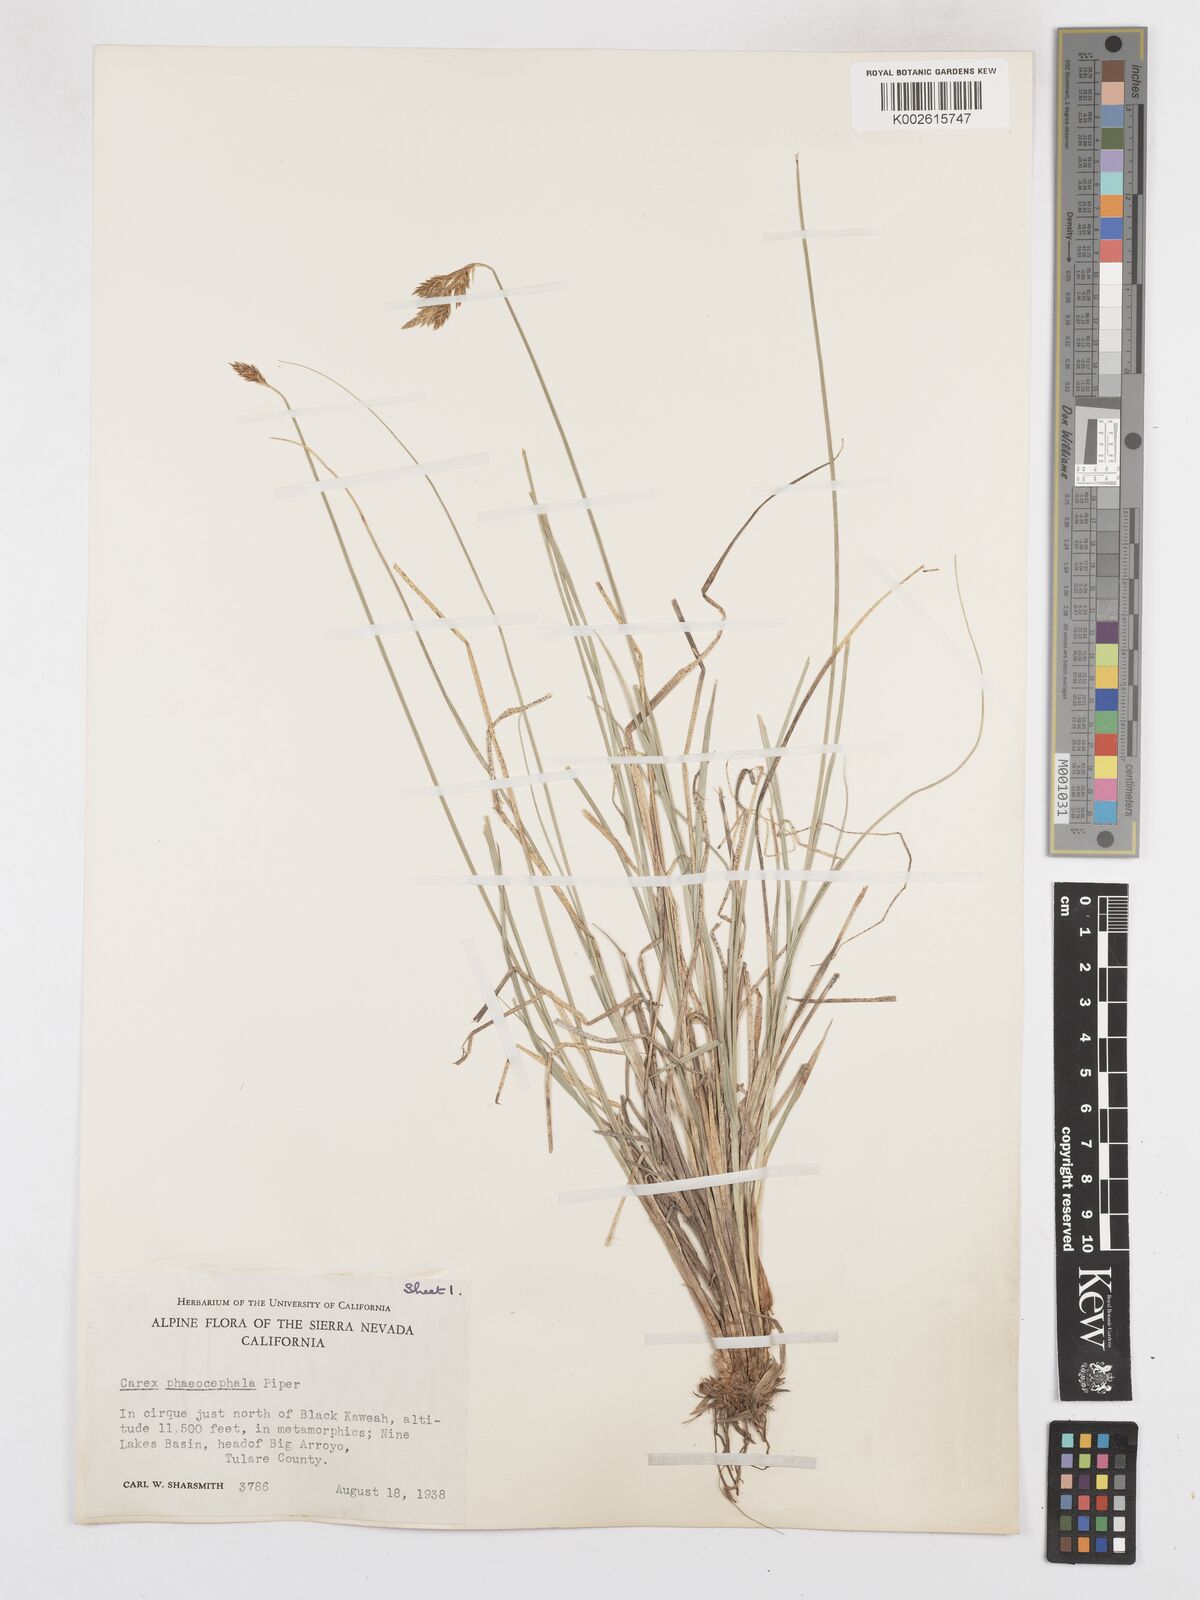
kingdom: Plantae
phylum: Tracheophyta
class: Liliopsida
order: Poales
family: Cyperaceae
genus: Carex
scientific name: Carex phaeocephala
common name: Brown-head sedge
